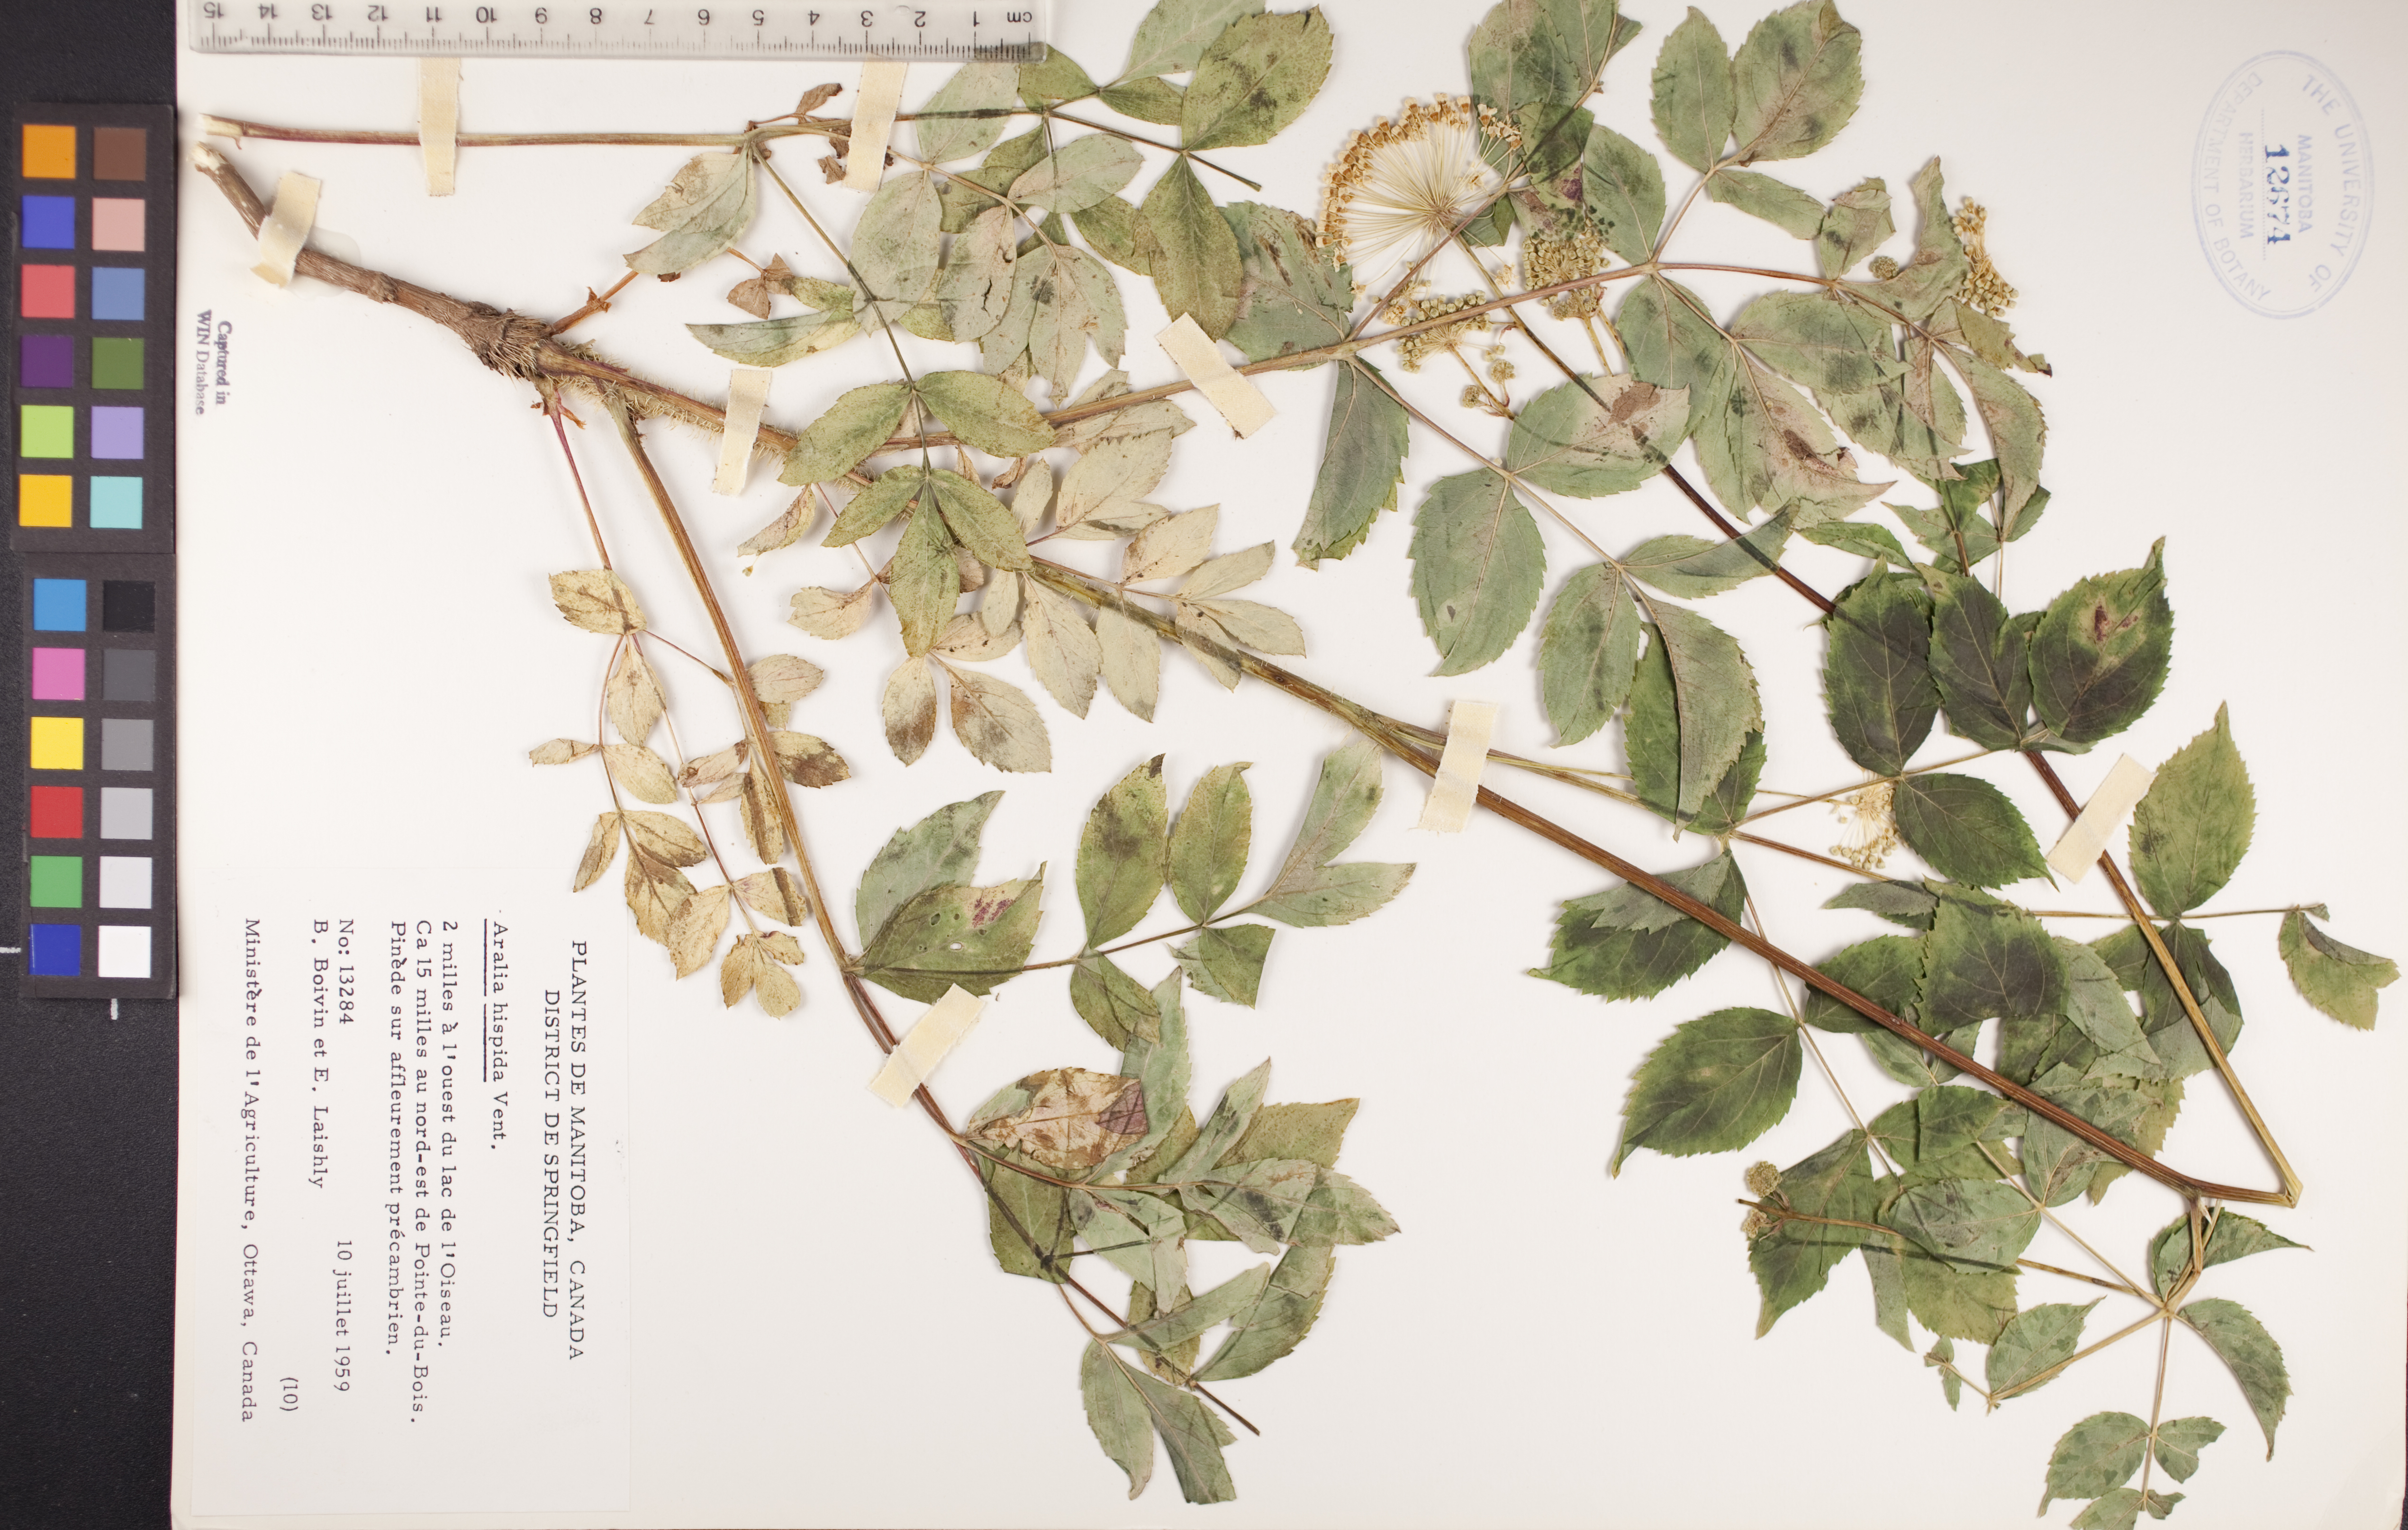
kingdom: Plantae
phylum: Tracheophyta
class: Magnoliopsida
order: Apiales
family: Araliaceae
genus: Aralia
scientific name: Aralia hispida
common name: Bristly sarsaparilla
